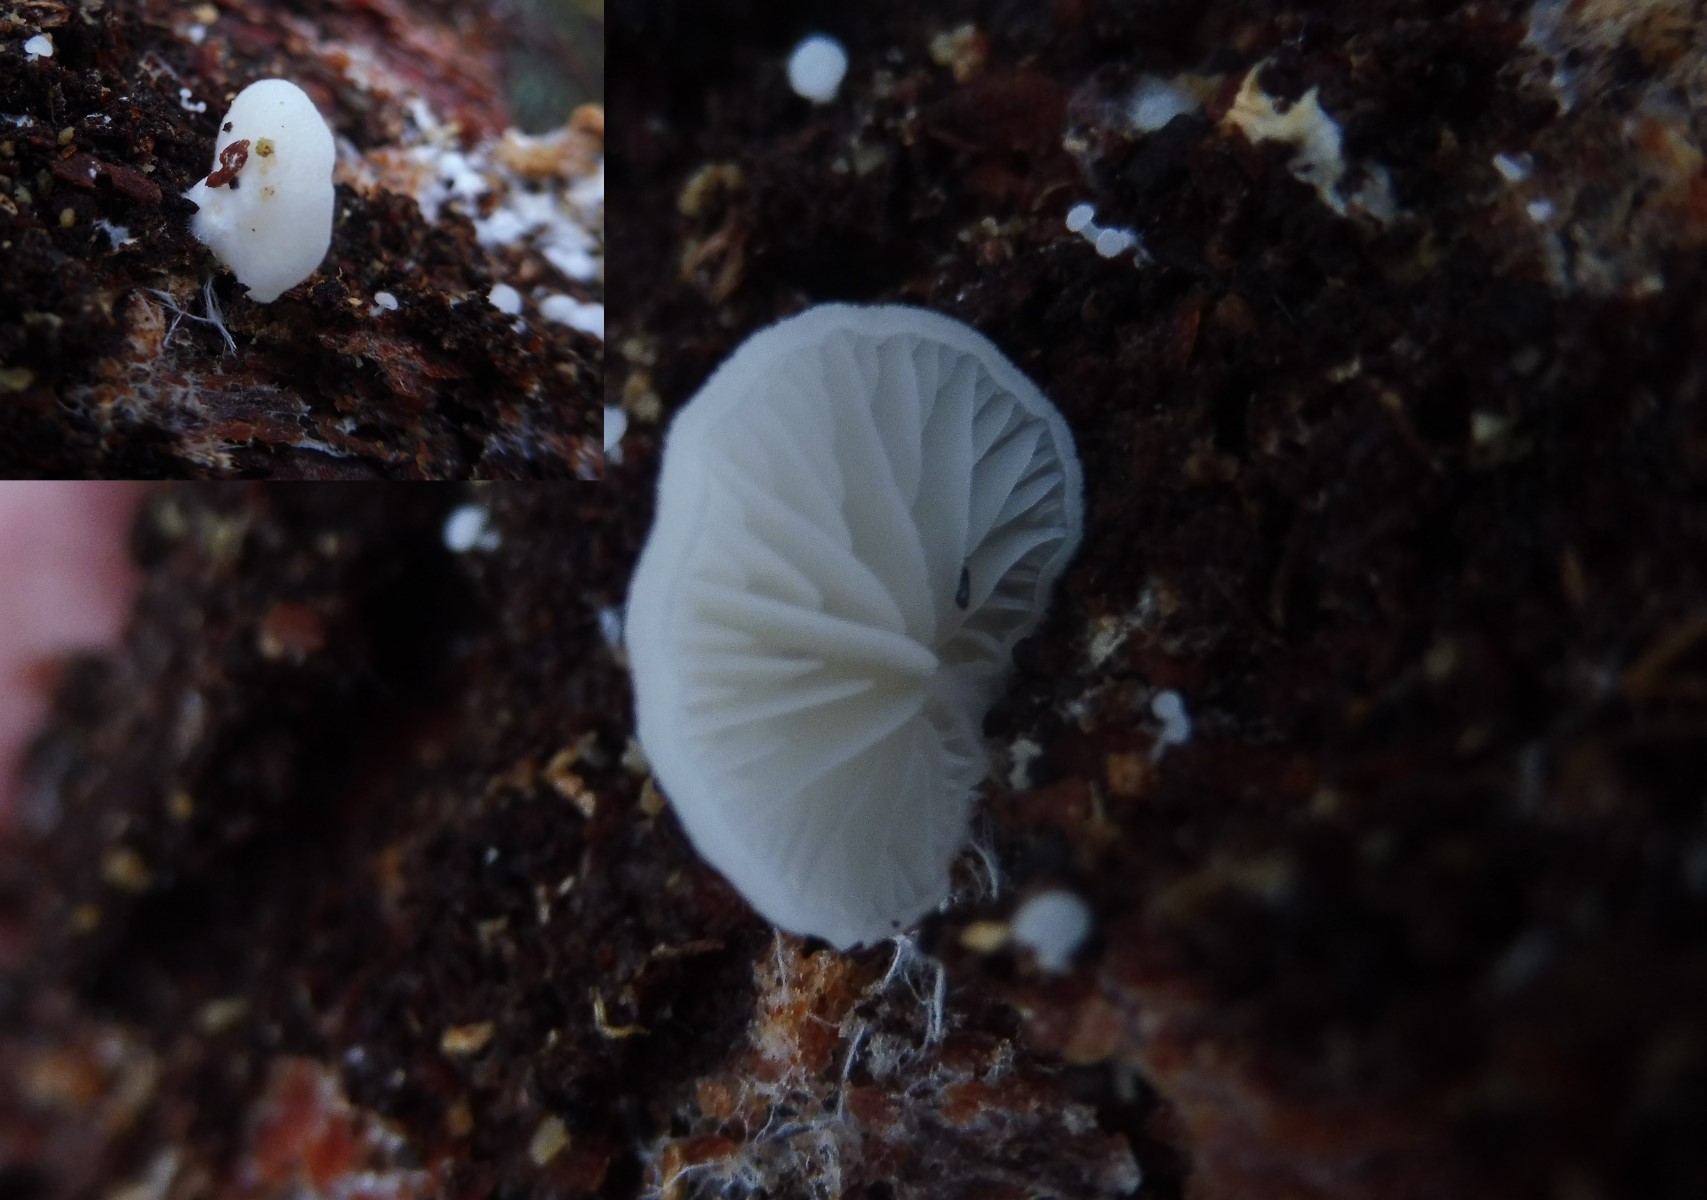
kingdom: Fungi
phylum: Basidiomycota
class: Agaricomycetes
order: Agaricales
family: Entolomataceae
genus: Clitopilus
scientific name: Clitopilus hobsonii
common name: Miller's oysterling
